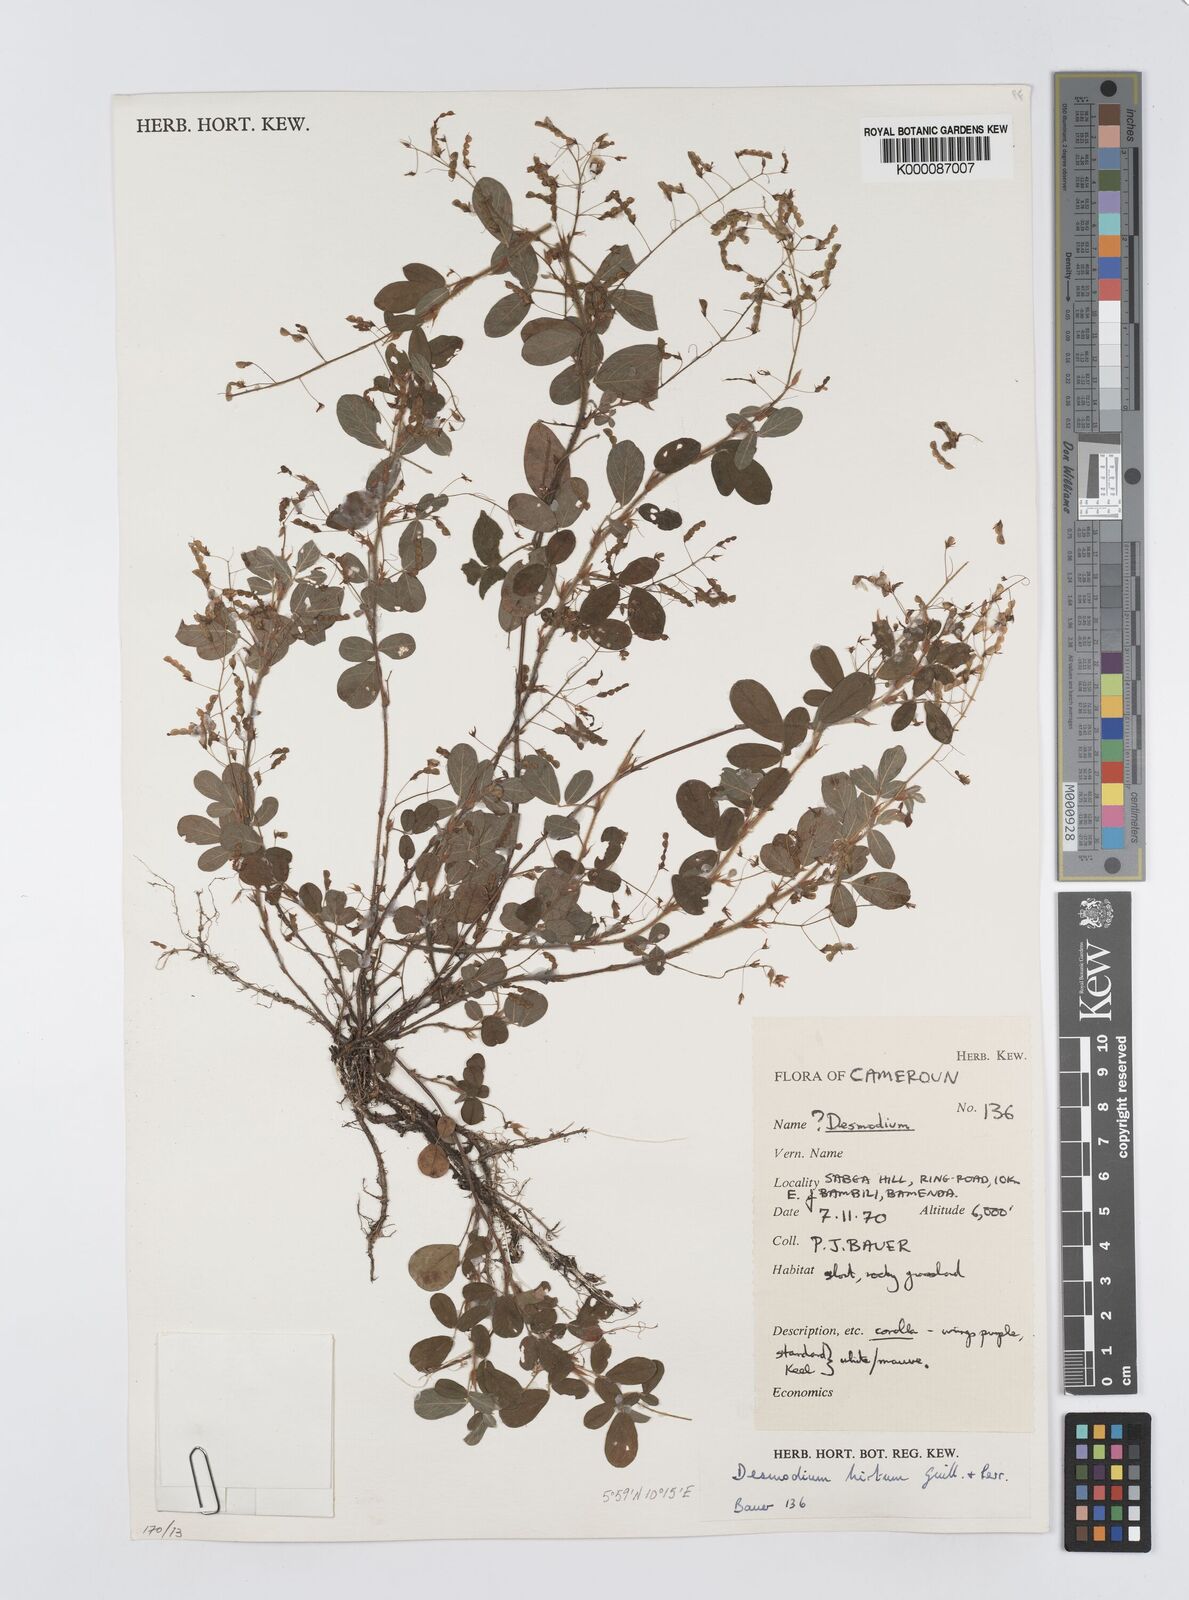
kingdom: Plantae
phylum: Tracheophyta
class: Magnoliopsida
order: Fabales
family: Fabaceae
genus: Grona
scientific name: Grona hirta
